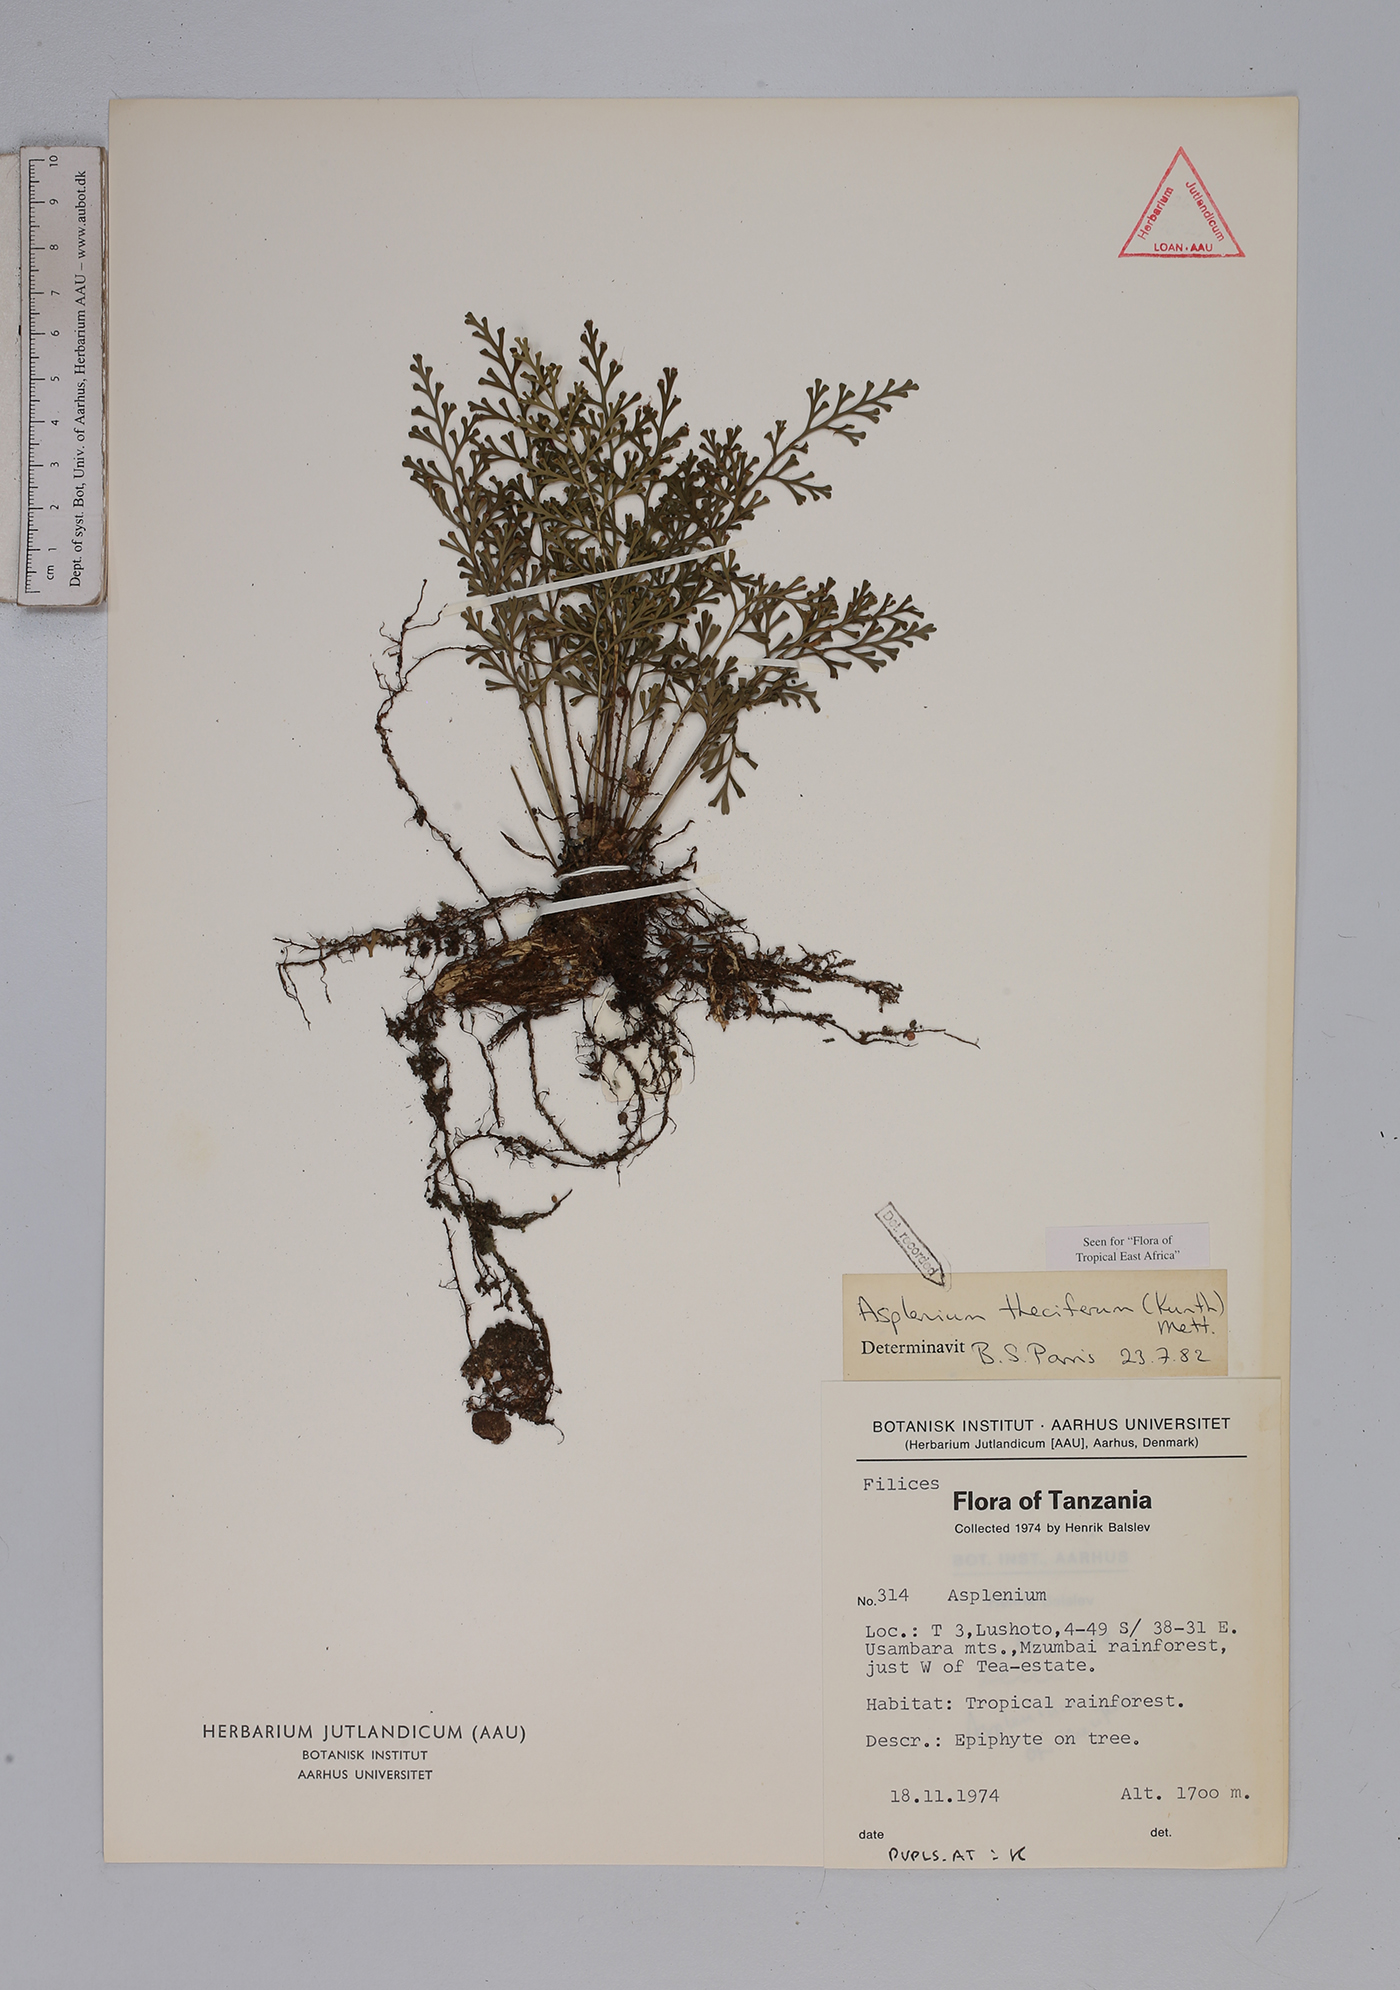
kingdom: Plantae
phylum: Tracheophyta
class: Polypodiopsida
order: Polypodiales
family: Aspleniaceae
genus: Asplenium
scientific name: Asplenium theciferum
